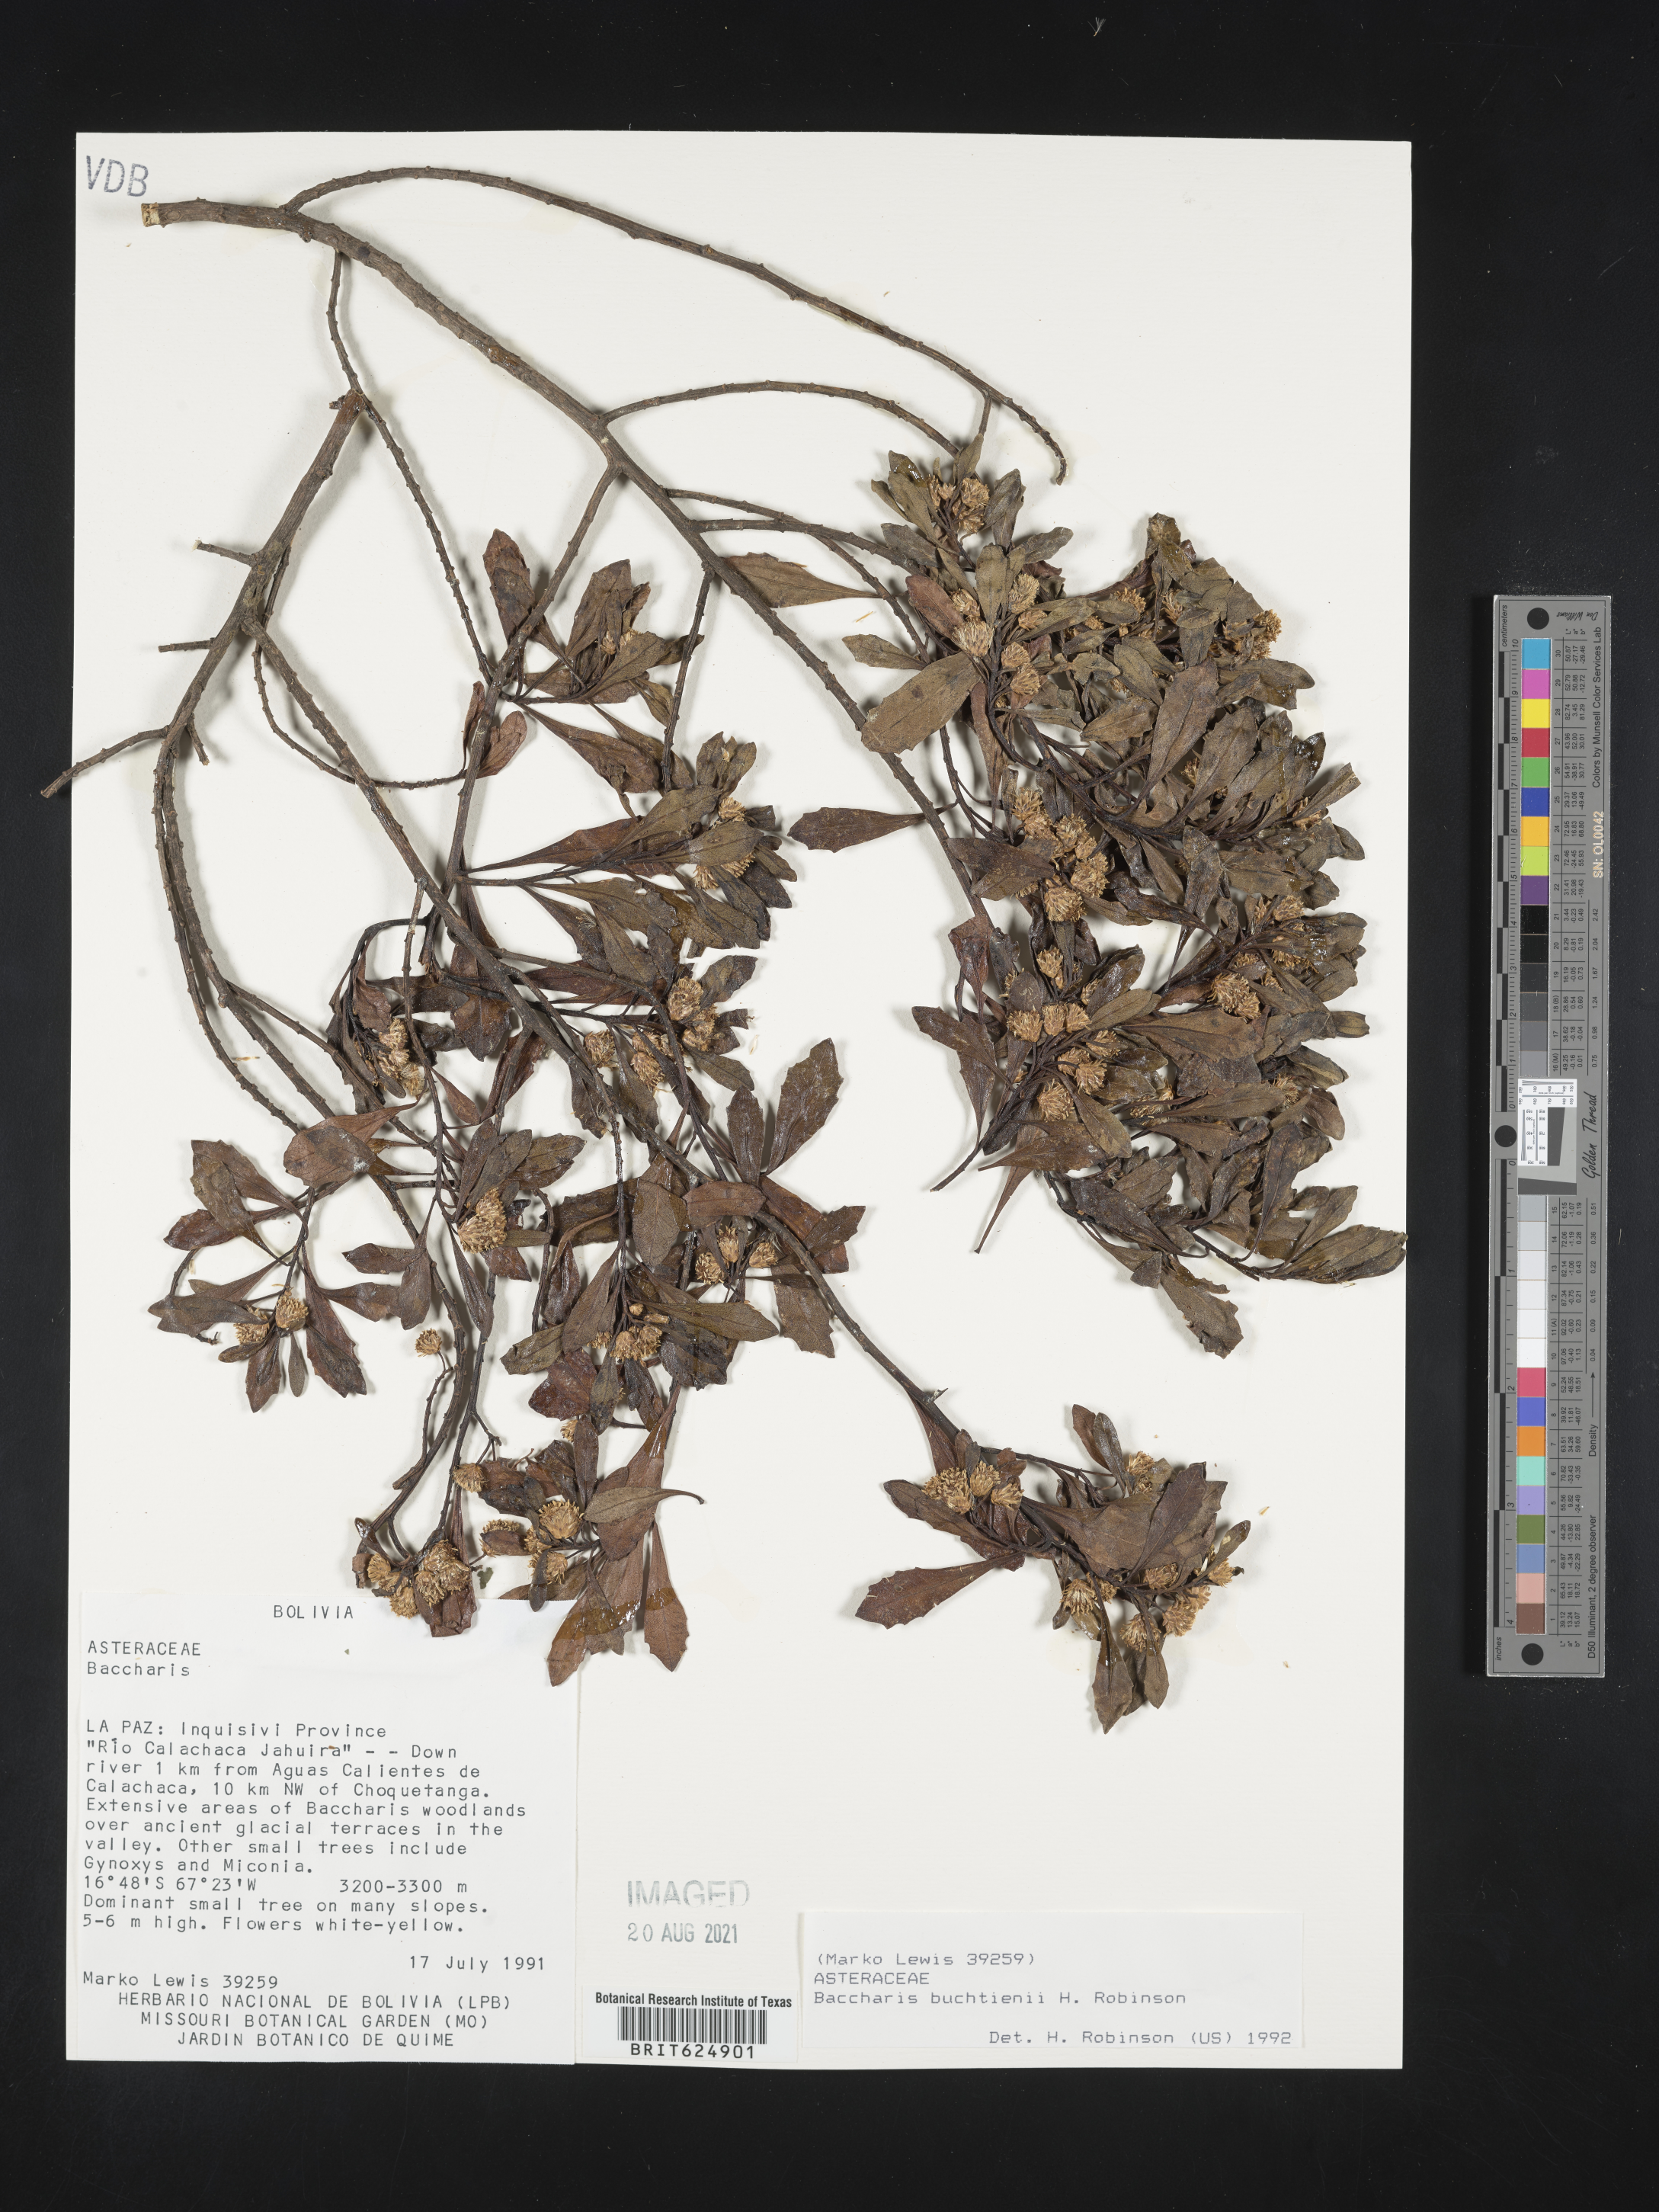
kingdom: Plantae
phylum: Tracheophyta
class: Magnoliopsida
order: Asterales
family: Asteraceae
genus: Baccharis
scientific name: Baccharis buchtienii
